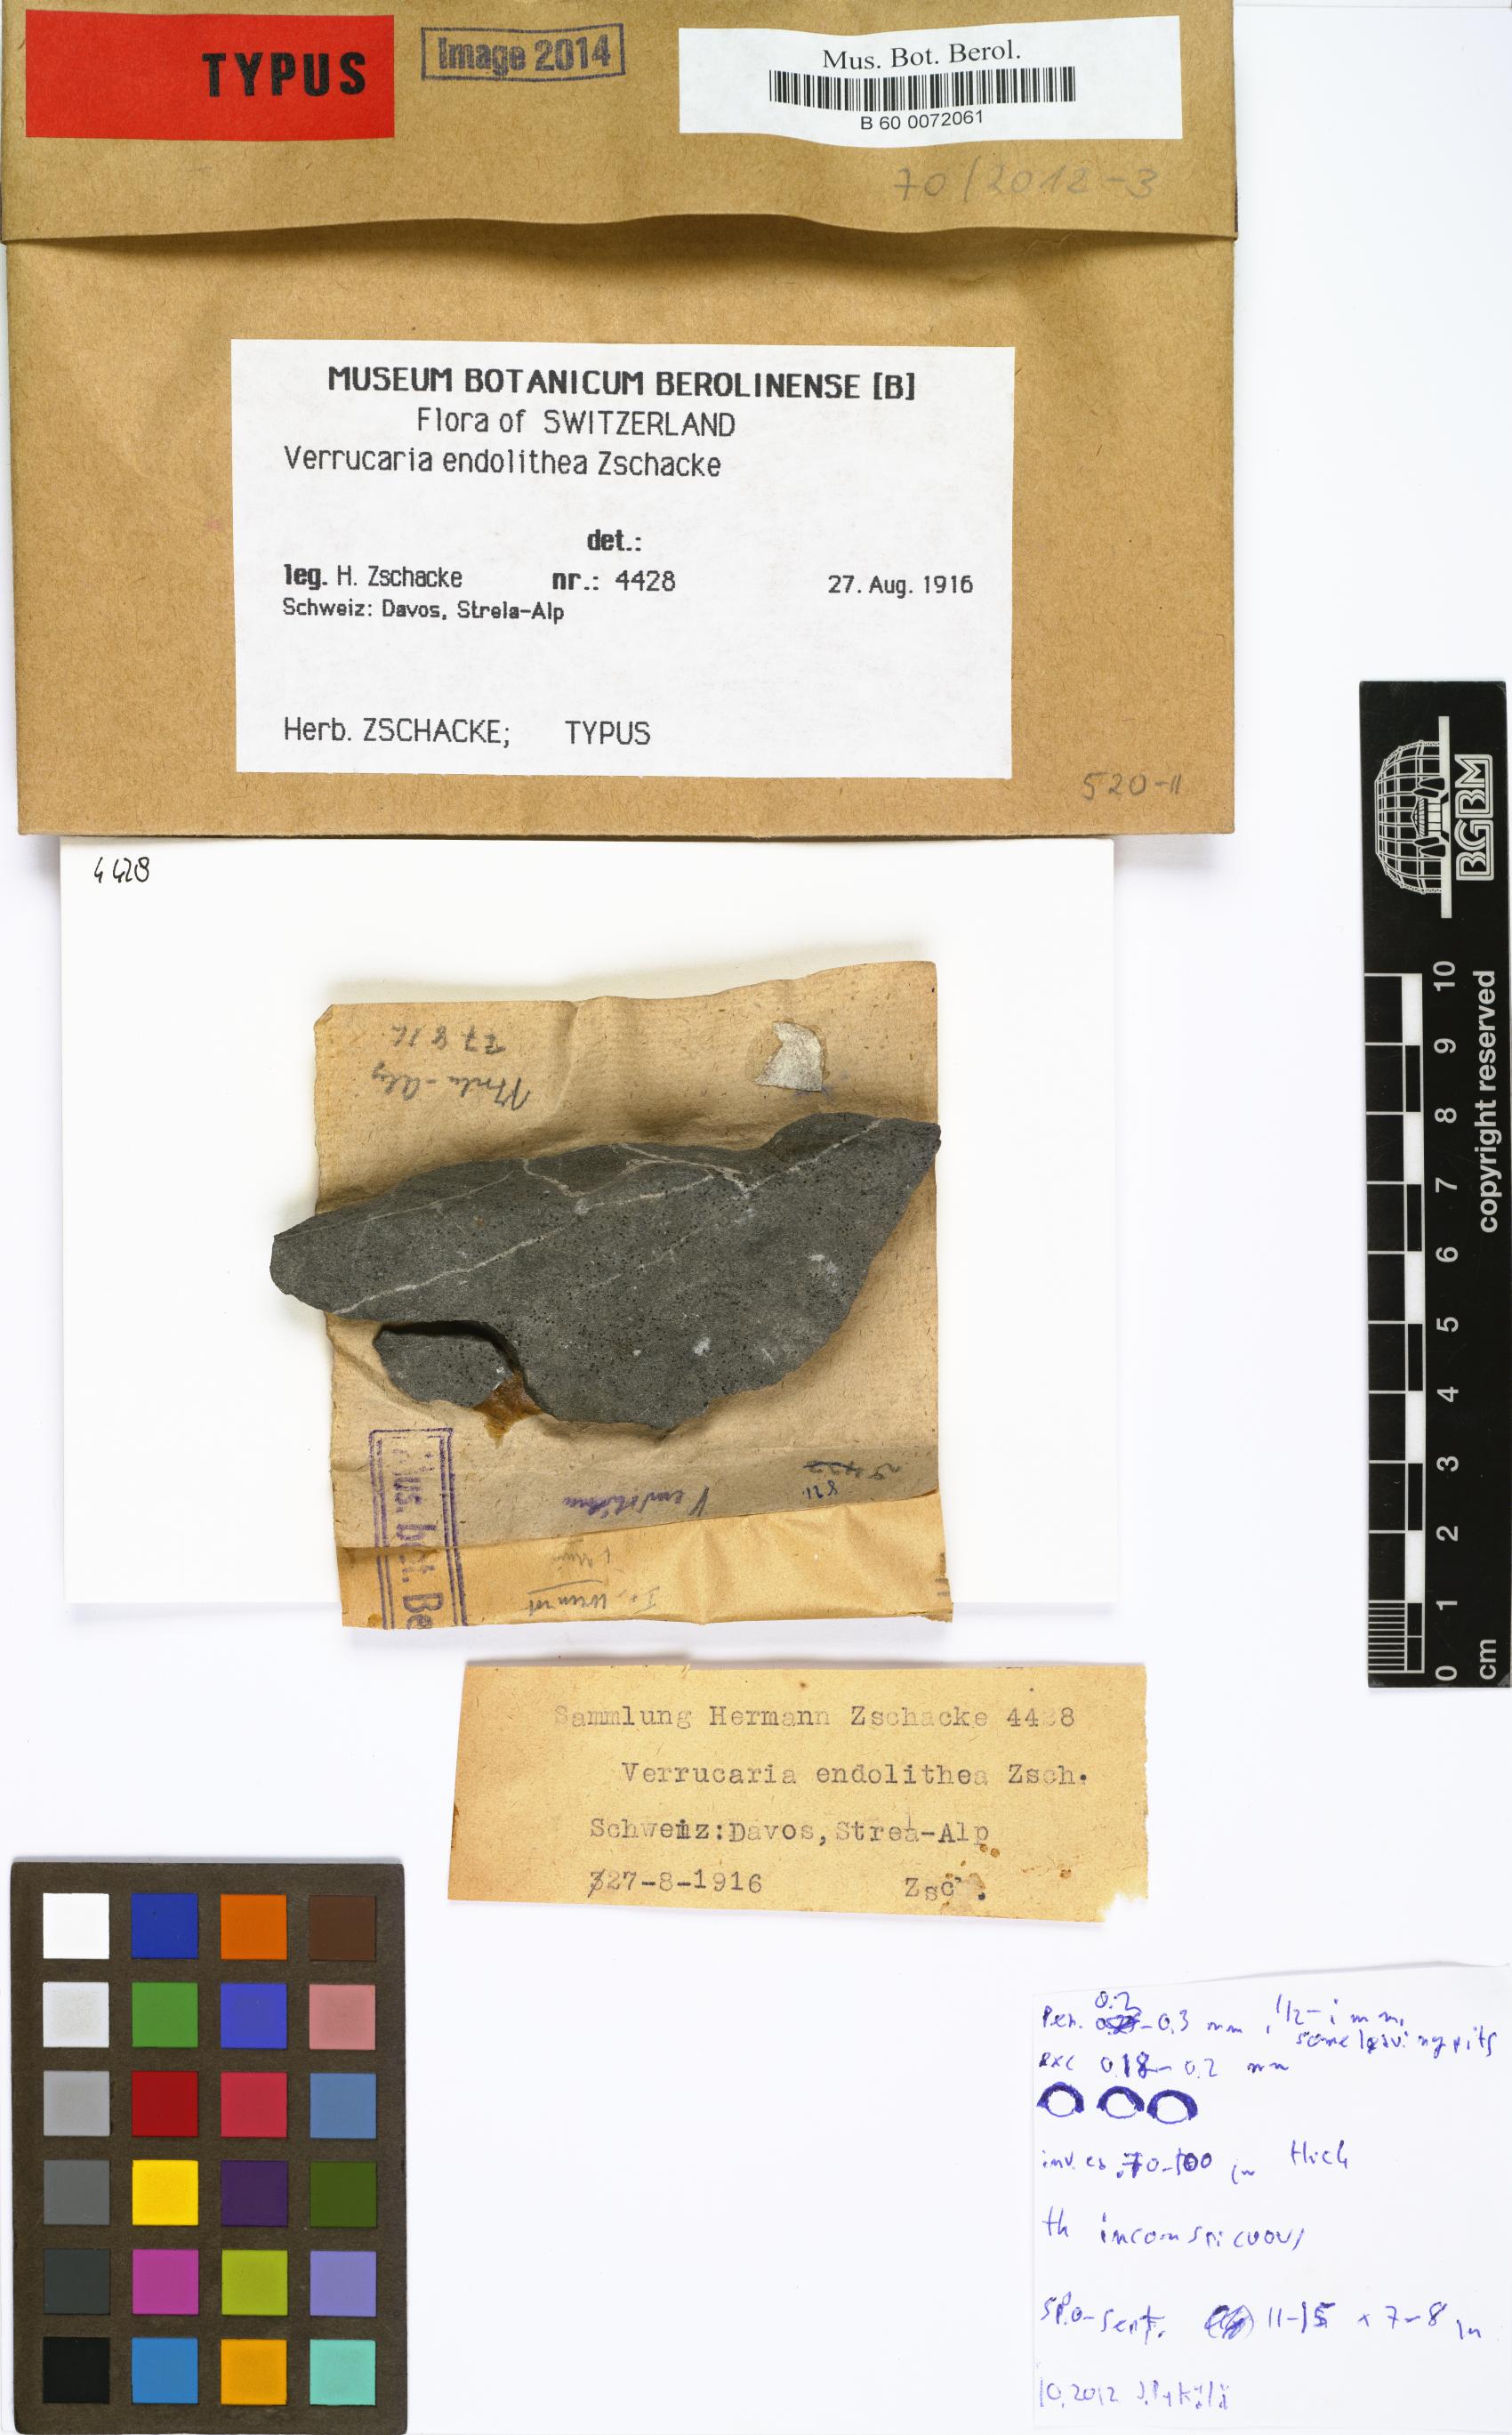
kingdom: Fungi
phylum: Ascomycota
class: Eurotiomycetes
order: Verrucariales
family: Verrucariaceae
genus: Verrucaria
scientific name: Verrucaria
